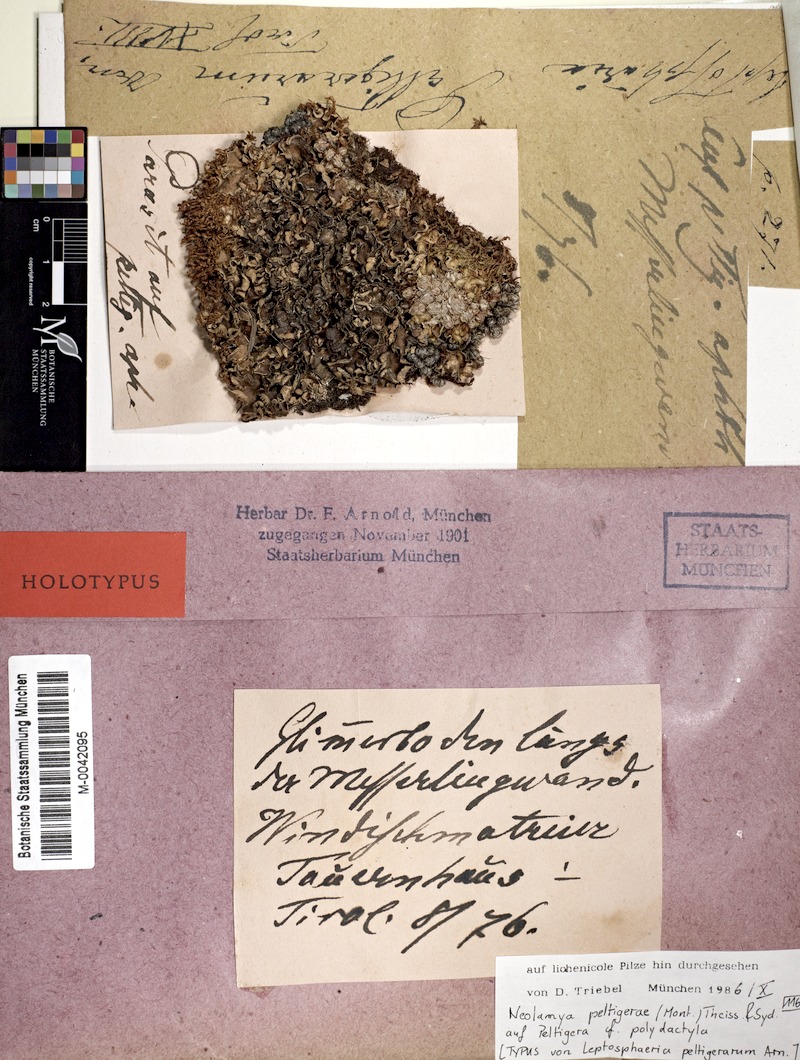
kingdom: Fungi
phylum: Ascomycota
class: Sordariomycetes
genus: Neolamya
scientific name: Neolamya peltigerae
